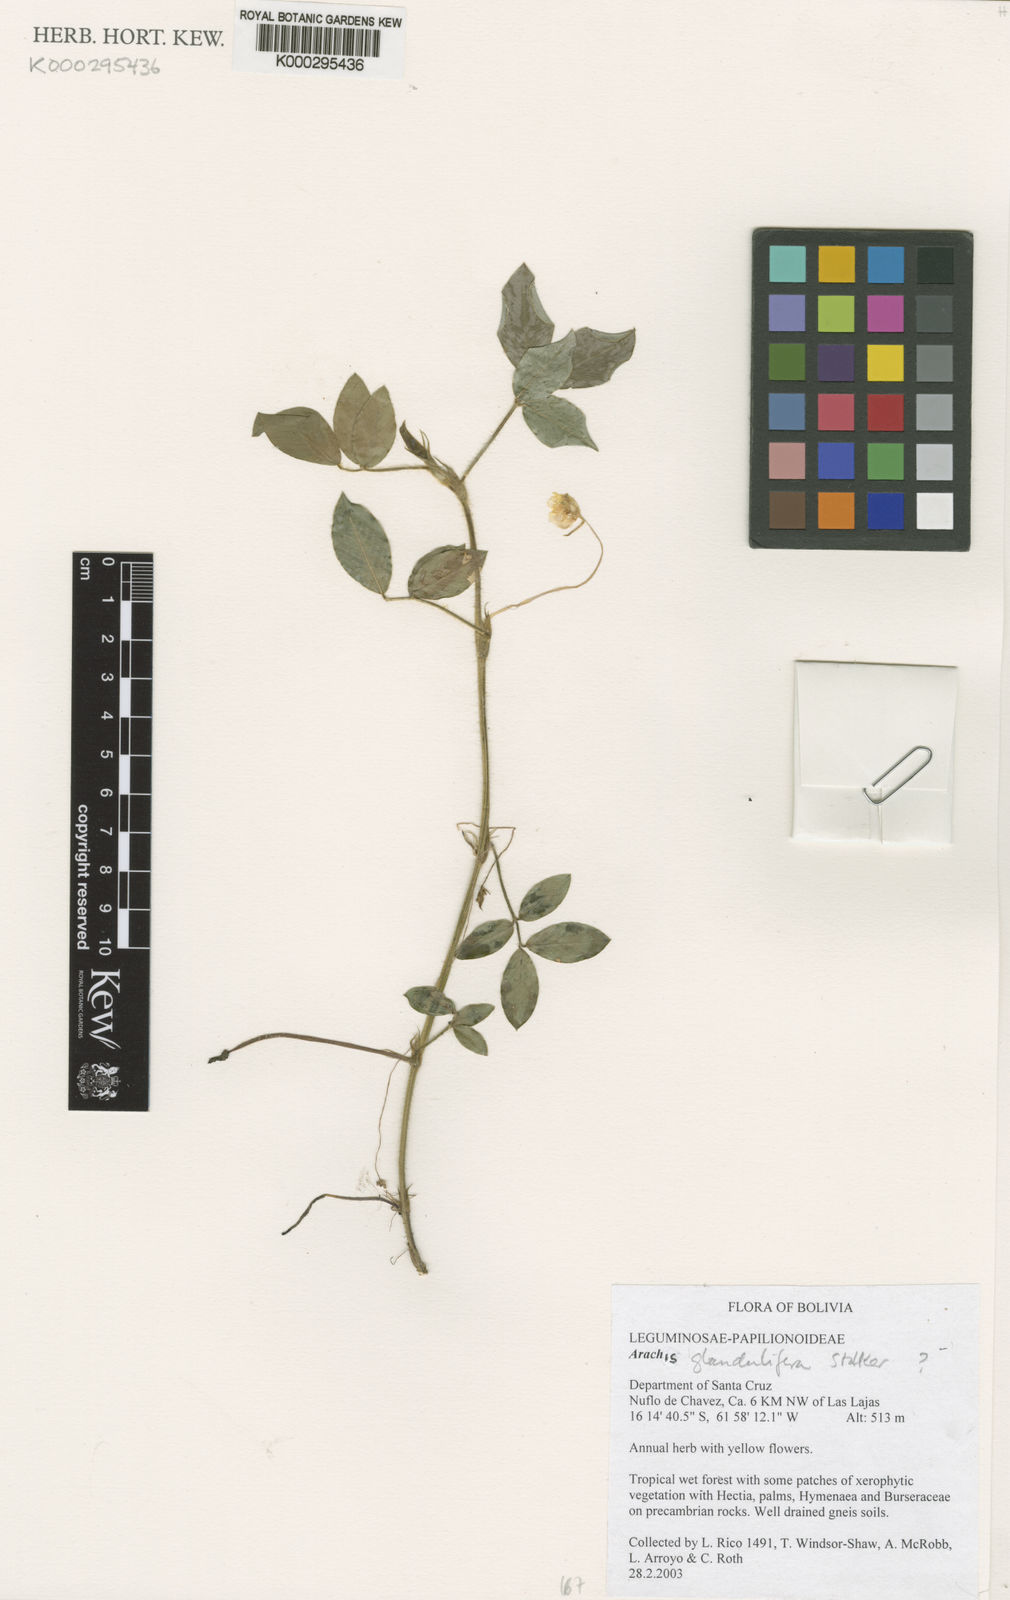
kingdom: Plantae
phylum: Tracheophyta
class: Magnoliopsida
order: Fabales
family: Fabaceae
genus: Arachis
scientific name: Arachis glandulifera
